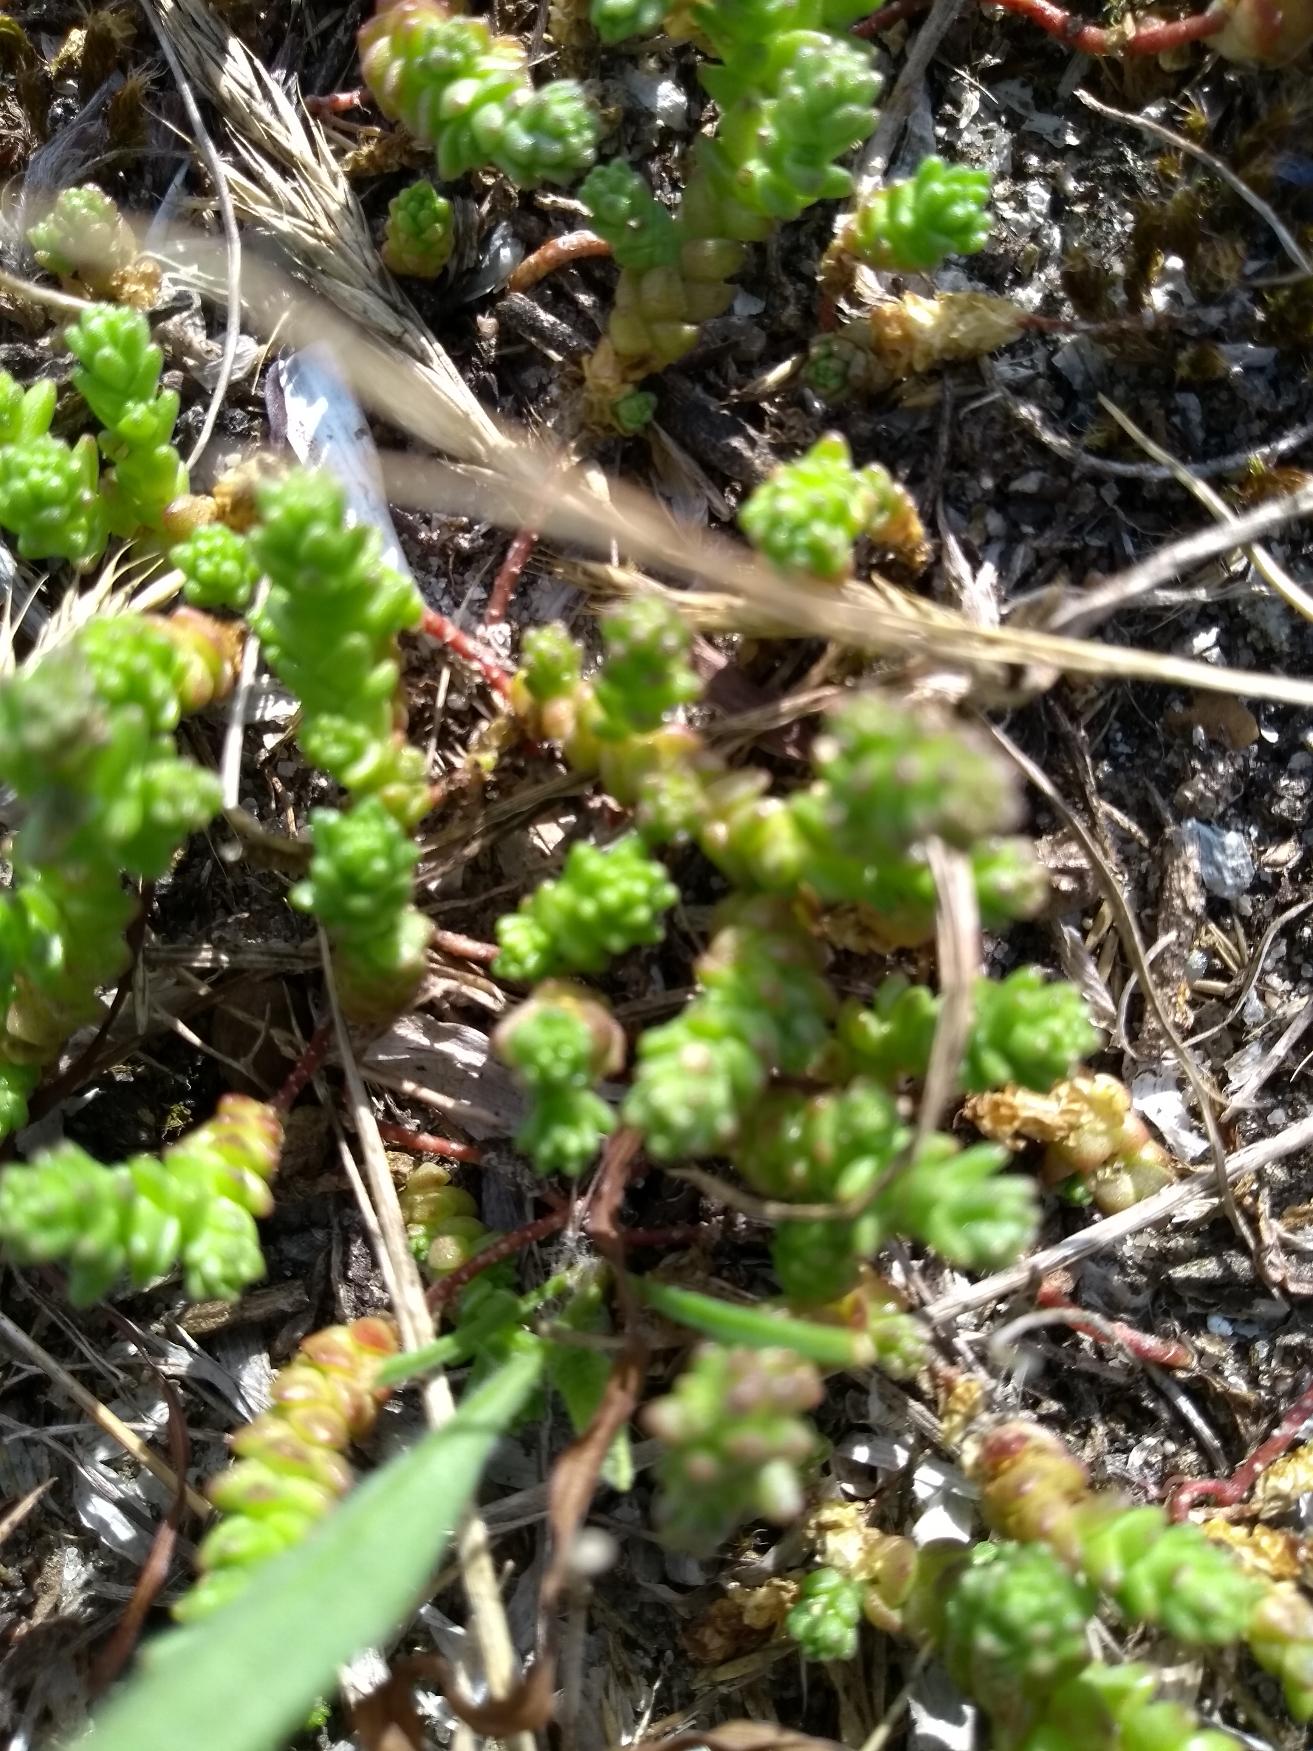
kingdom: Plantae
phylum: Tracheophyta
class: Magnoliopsida
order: Saxifragales
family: Crassulaceae
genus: Sedum
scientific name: Sedum acre
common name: Bidende stenurt
